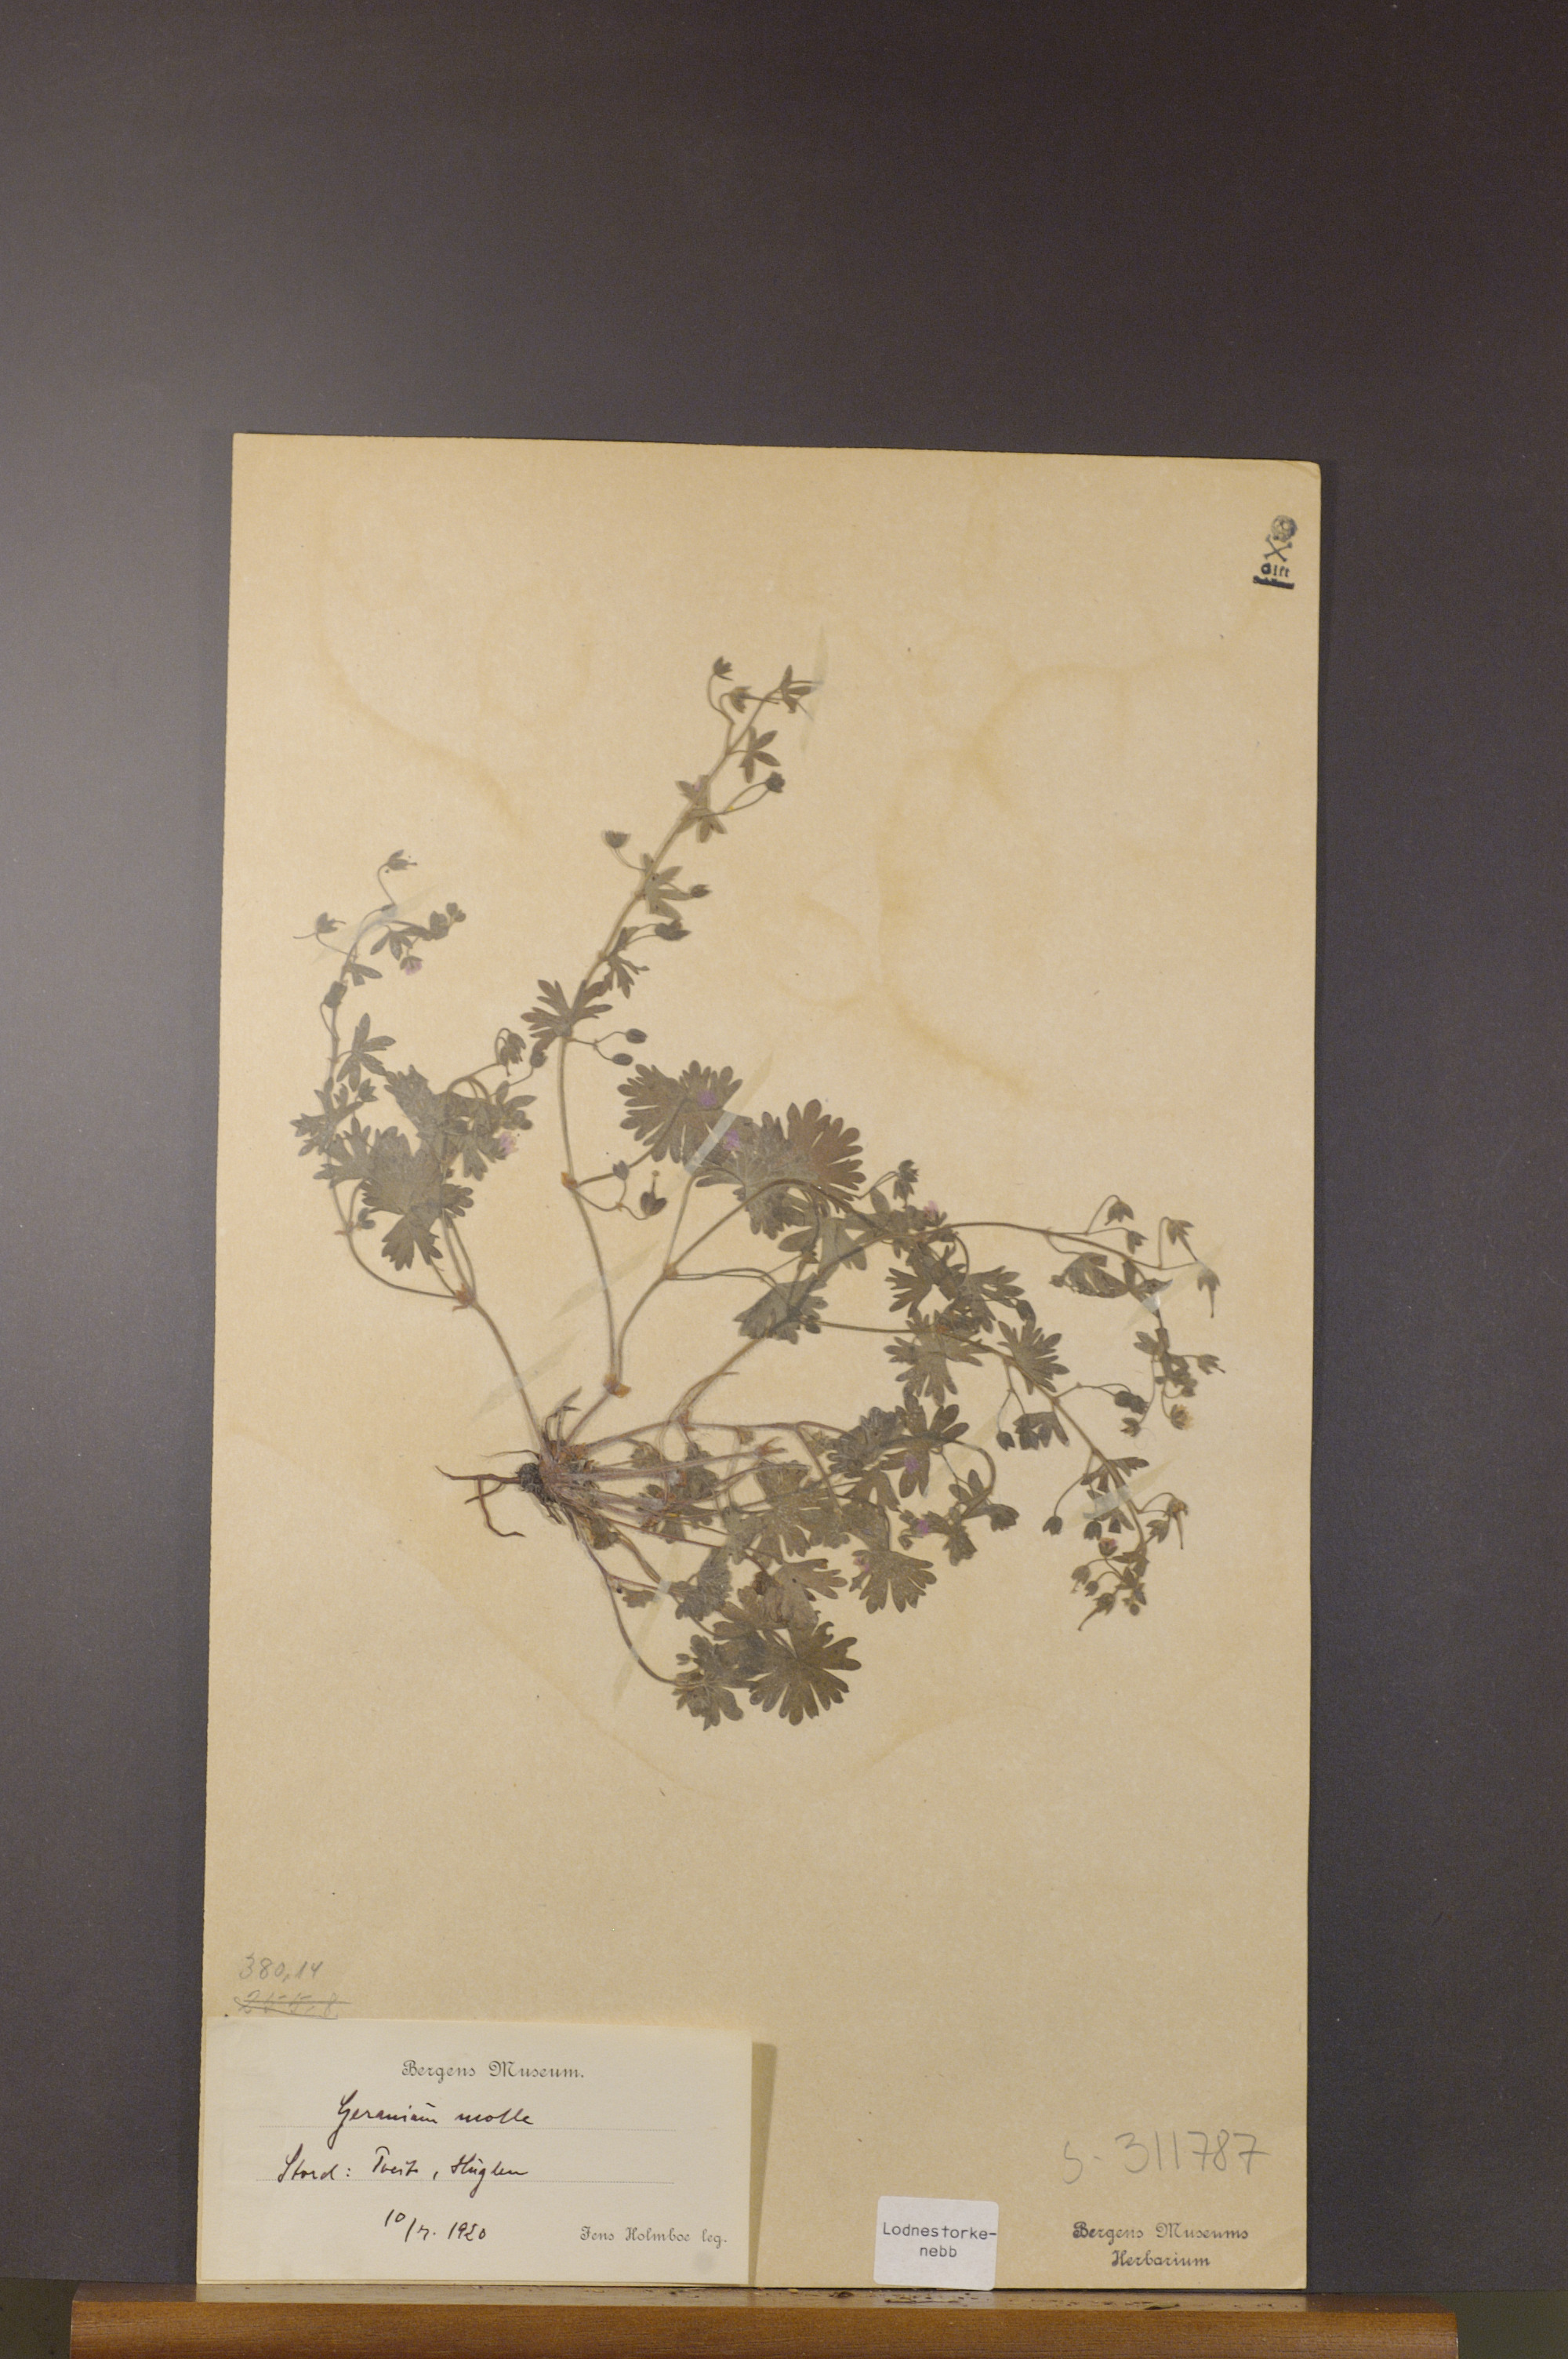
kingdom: Plantae
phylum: Tracheophyta
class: Magnoliopsida
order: Geraniales
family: Geraniaceae
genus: Geranium
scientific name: Geranium molle
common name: Dove's-foot crane's-bill
